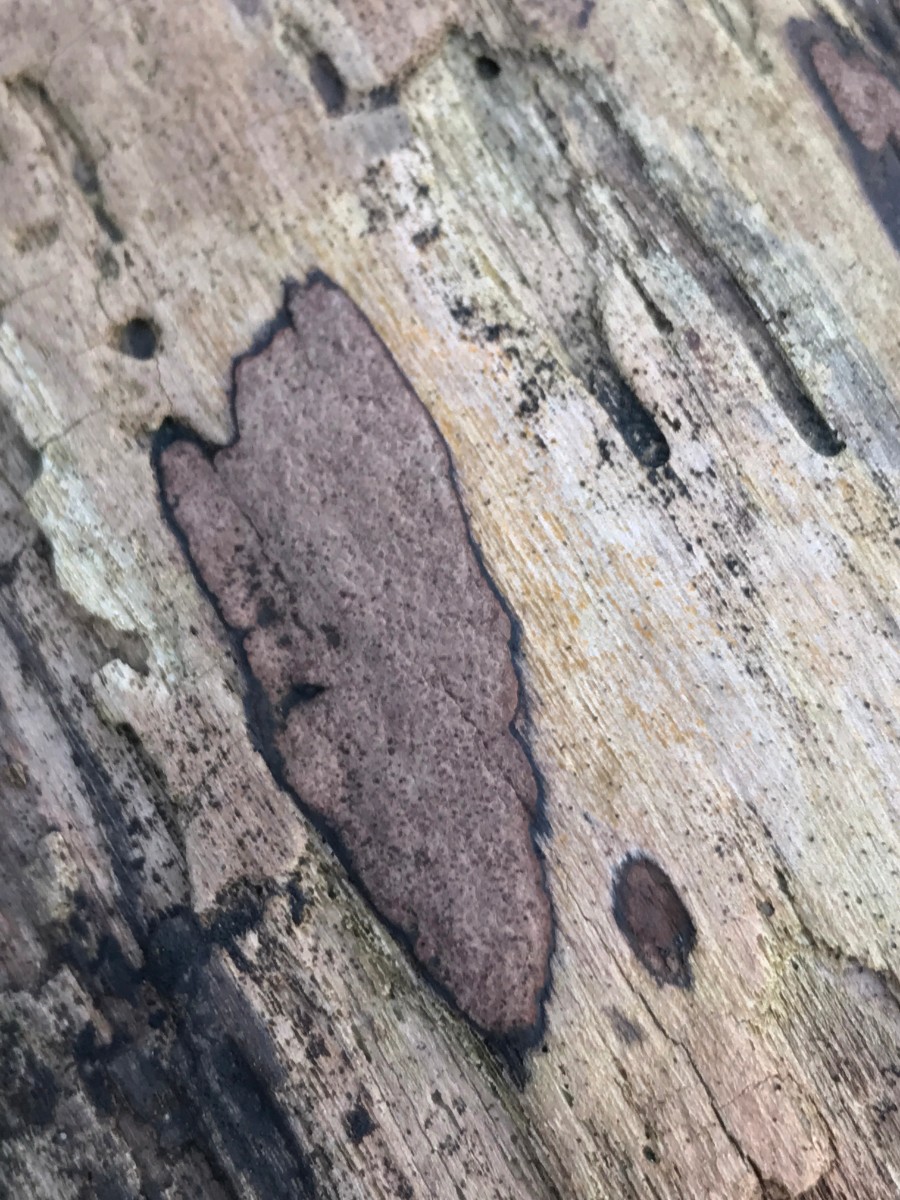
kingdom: Fungi
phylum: Ascomycota
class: Sordariomycetes
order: Xylariales
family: Hypoxylaceae
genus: Hypoxylon
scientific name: Hypoxylon petriniae
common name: nedsænket kulbær
